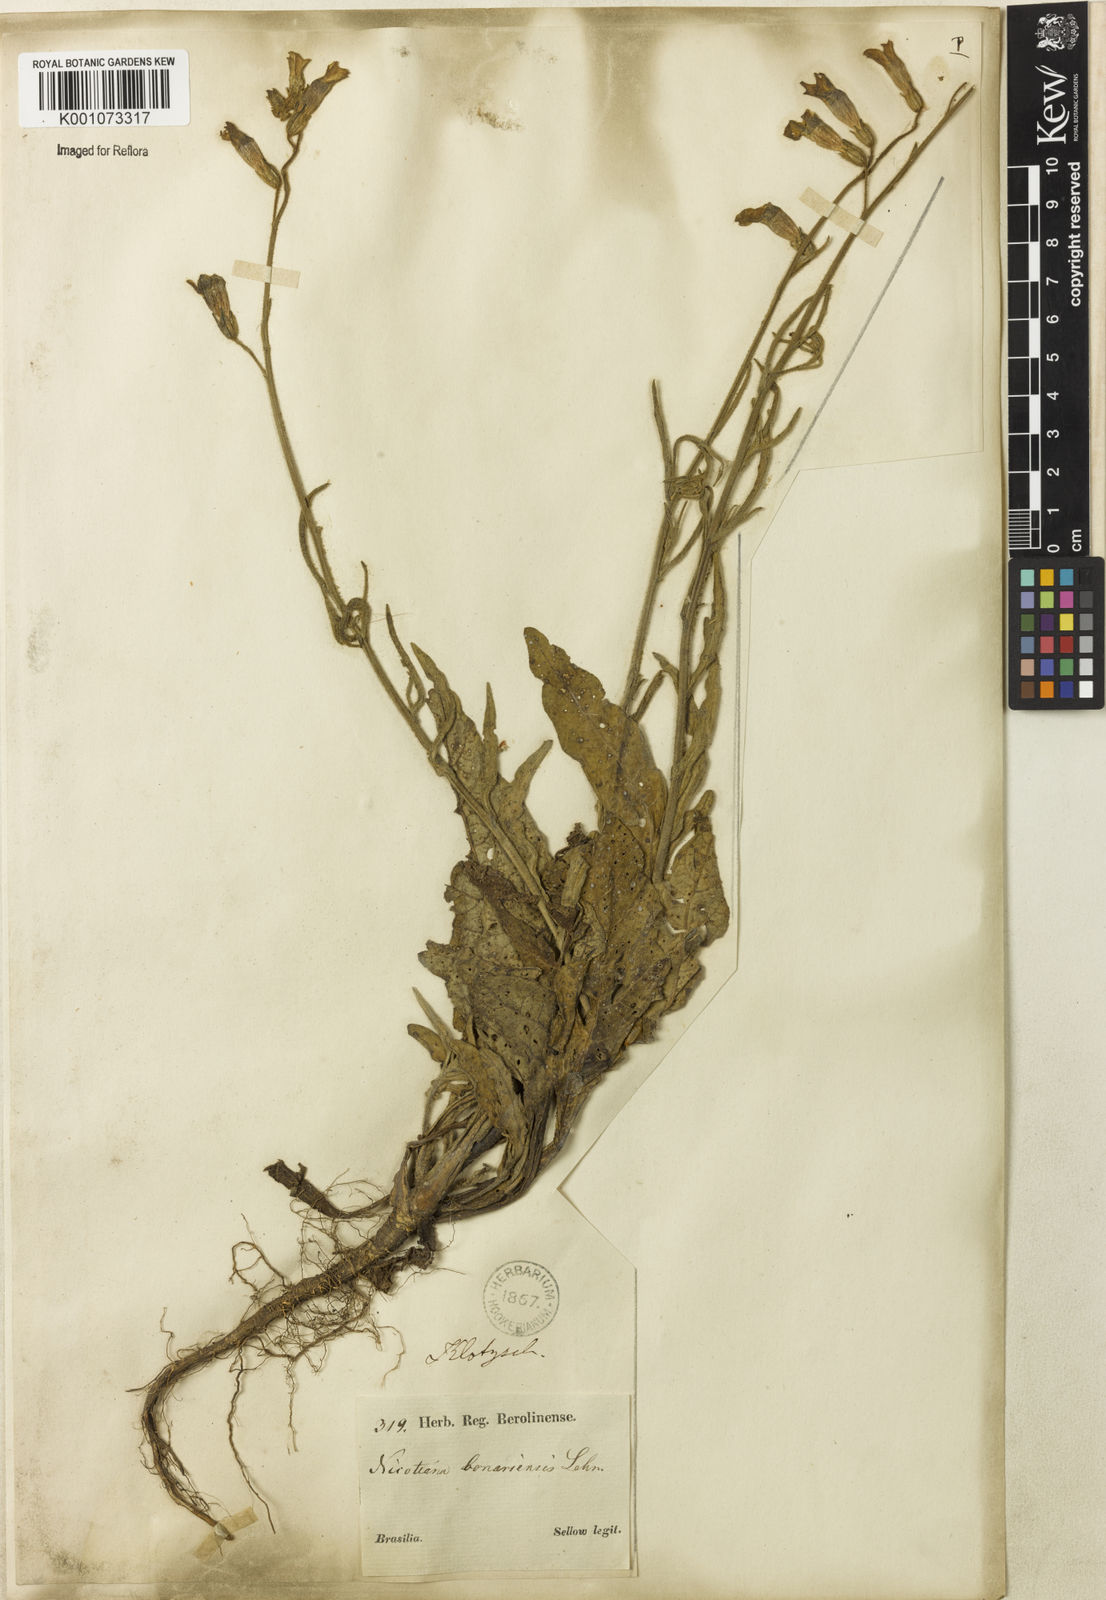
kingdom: Plantae
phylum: Tracheophyta
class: Magnoliopsida
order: Solanales
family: Solanaceae
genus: Nicotiana
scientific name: Nicotiana bonariensis
